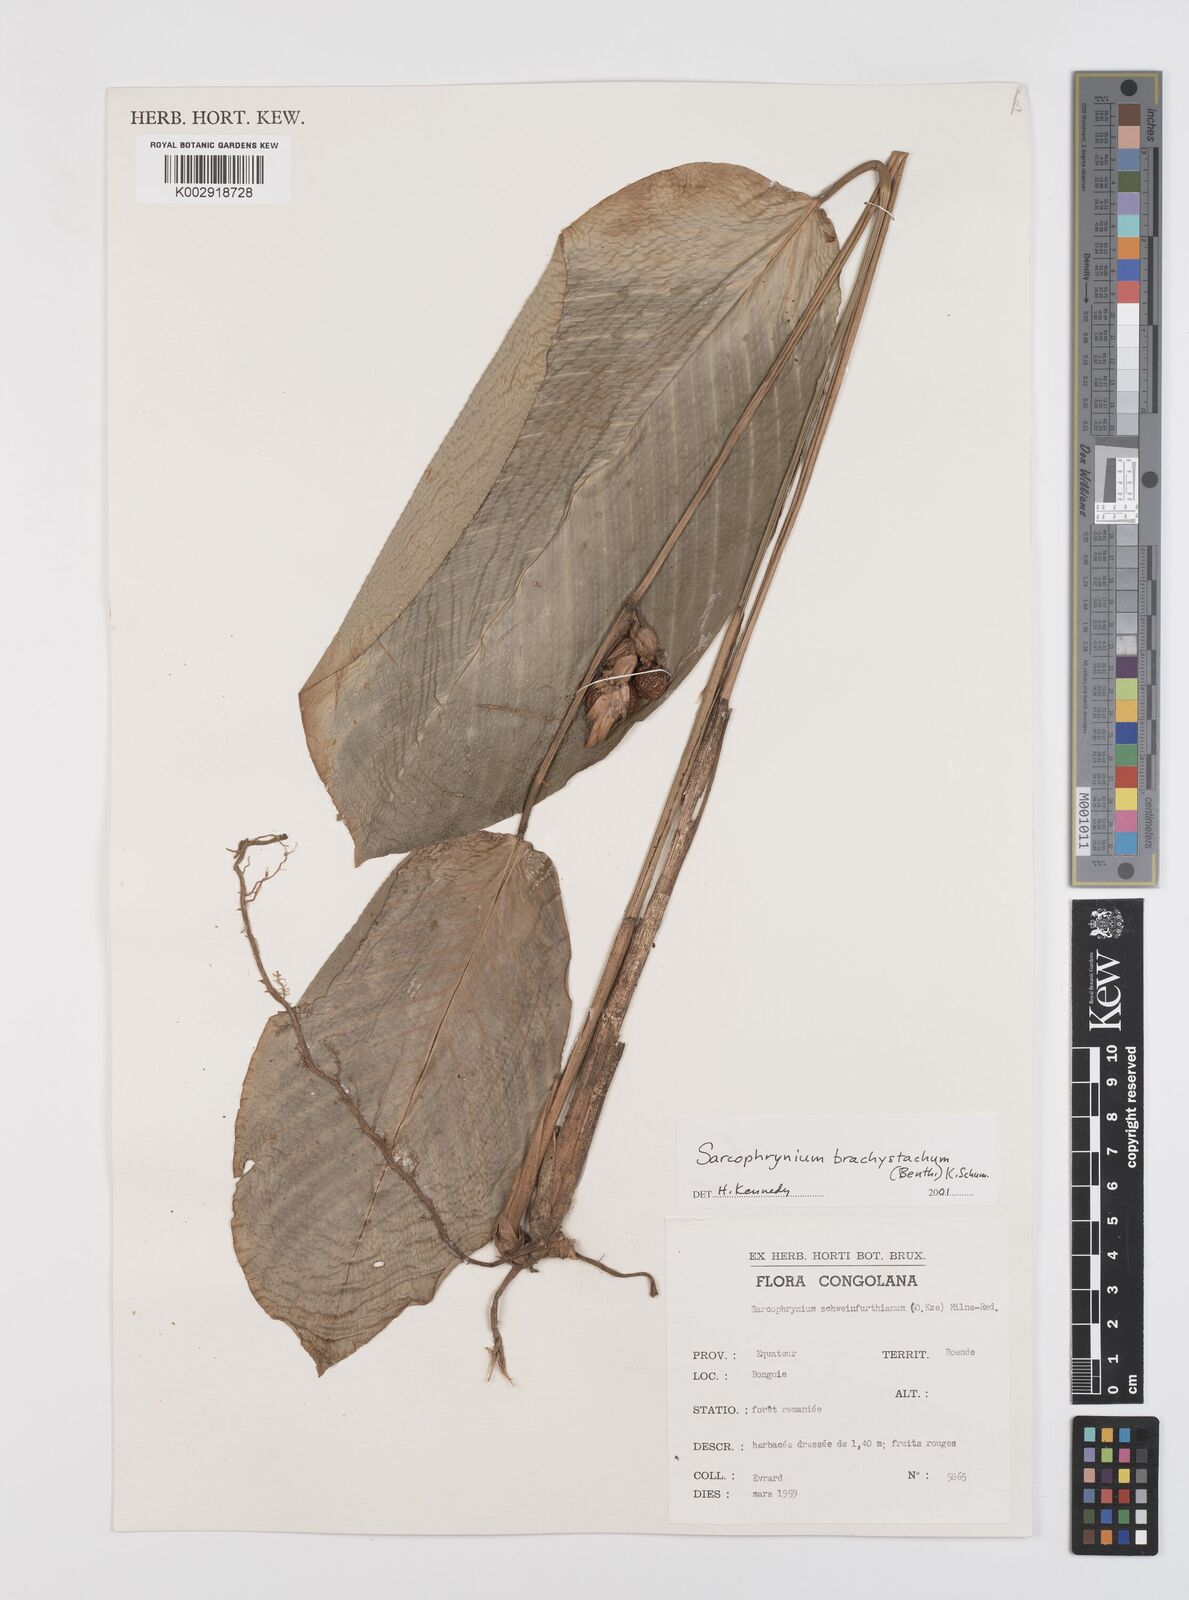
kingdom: Plantae
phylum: Tracheophyta
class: Liliopsida
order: Zingiberales
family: Marantaceae
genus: Sarcophrynium
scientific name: Sarcophrynium brachystachyum
